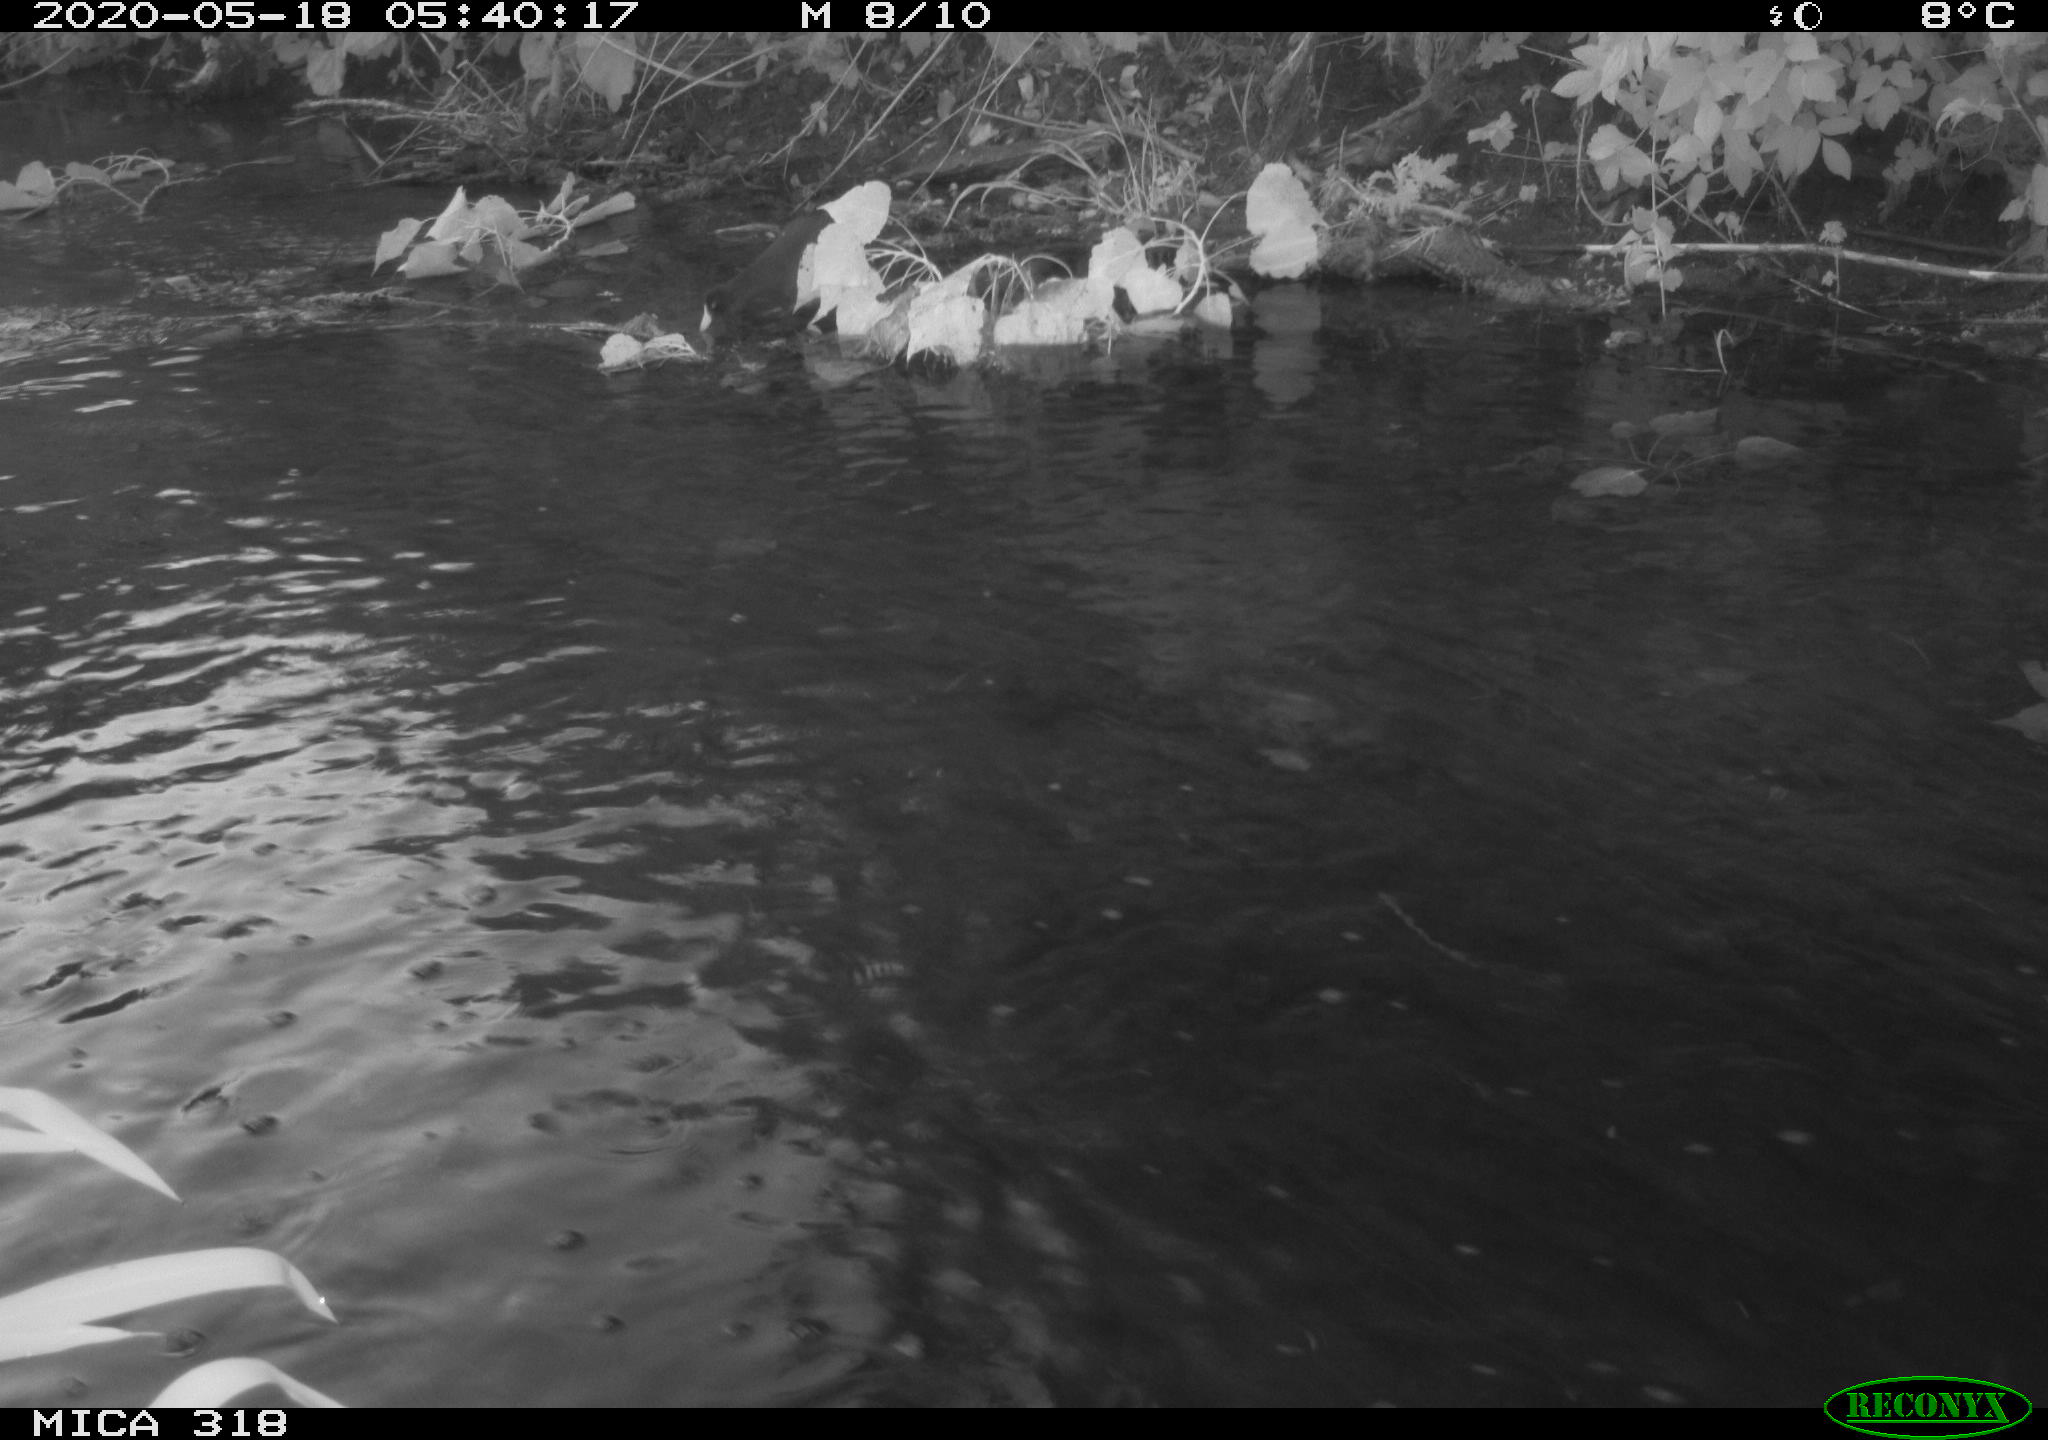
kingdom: Animalia
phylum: Chordata
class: Aves
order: Anseriformes
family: Anatidae
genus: Anas
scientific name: Anas platyrhynchos
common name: Mallard
